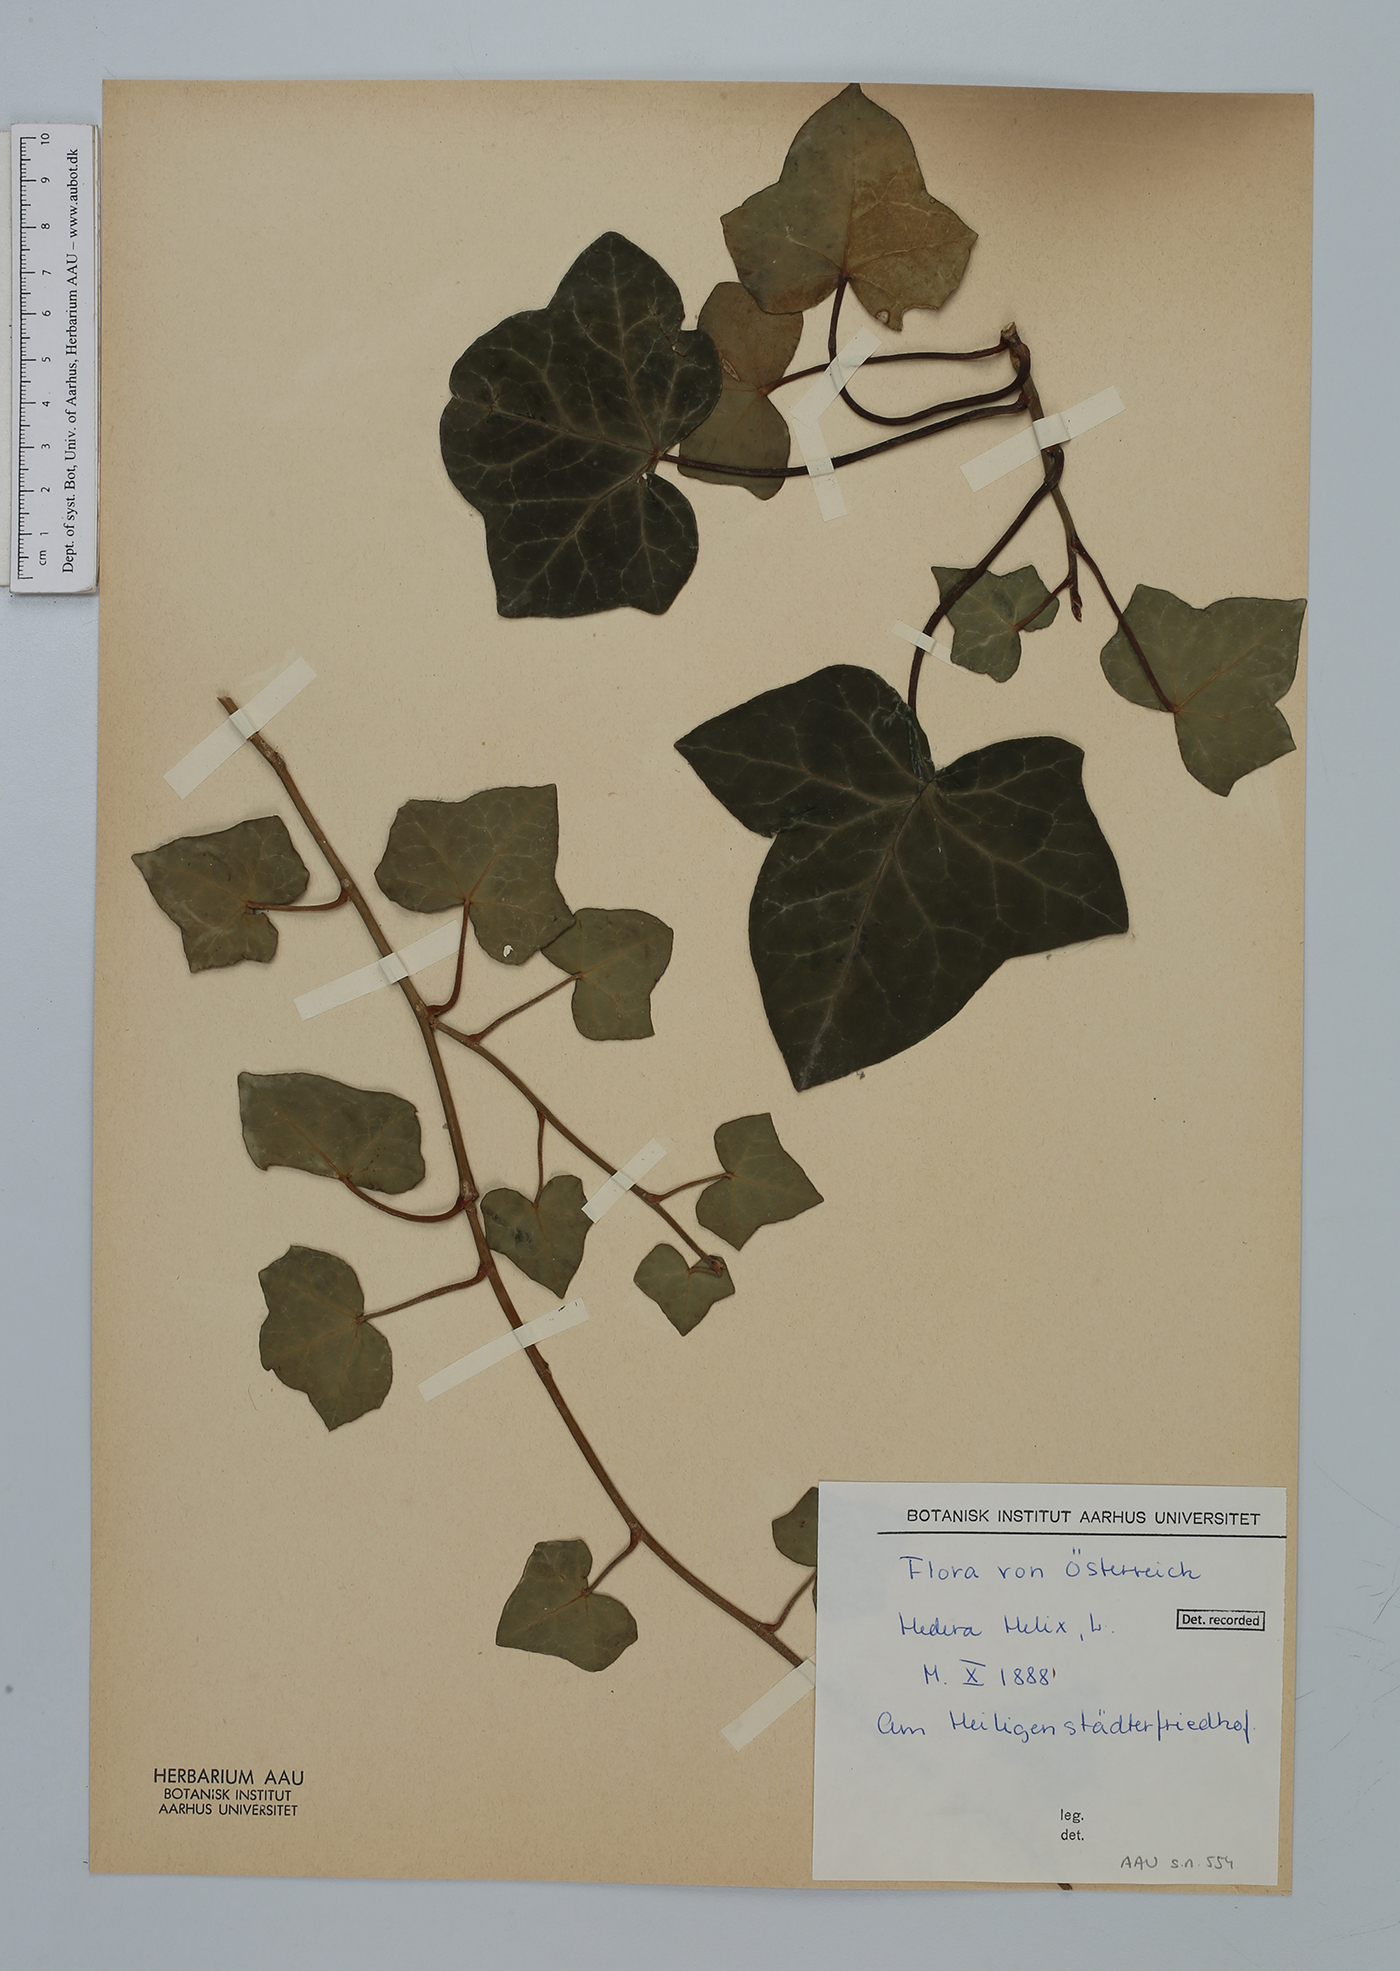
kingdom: Plantae
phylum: Tracheophyta
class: Magnoliopsida
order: Apiales
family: Araliaceae
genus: Hedera
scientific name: Hedera helix
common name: Ivy
